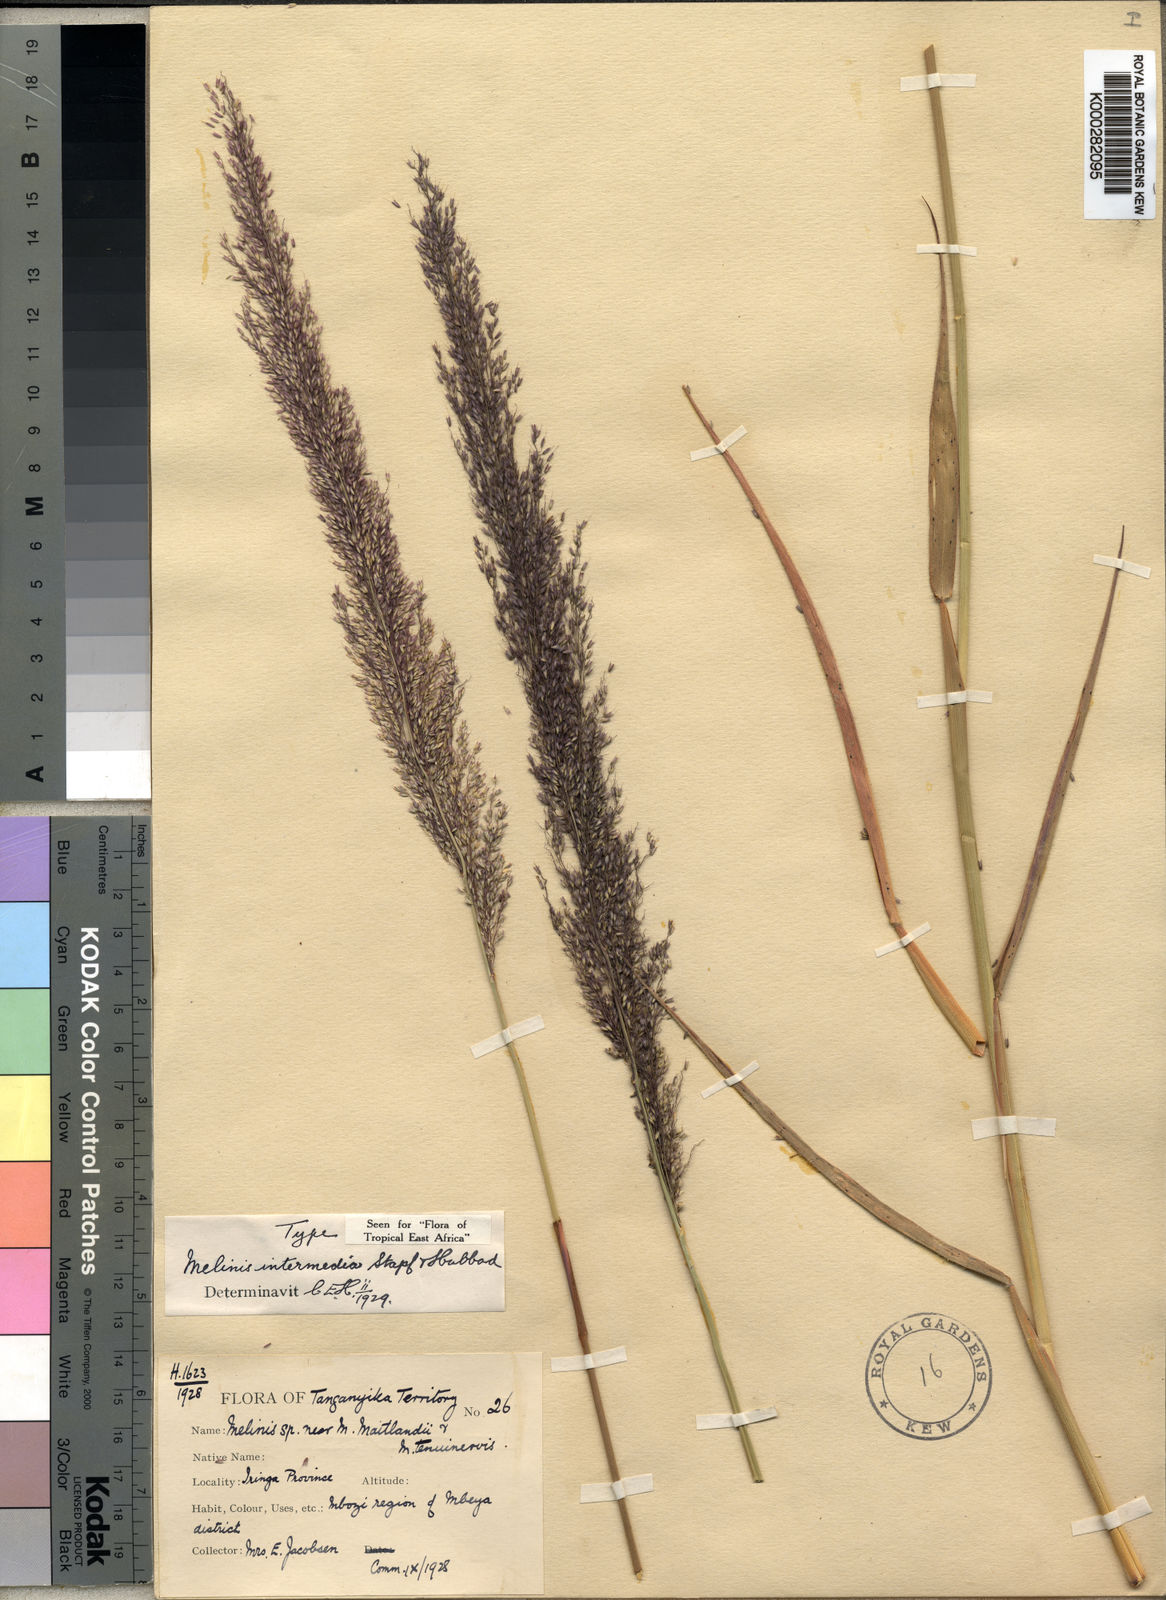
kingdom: Plantae
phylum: Tracheophyta
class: Liliopsida
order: Poales
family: Poaceae
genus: Melinis
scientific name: Melinis ambigua
